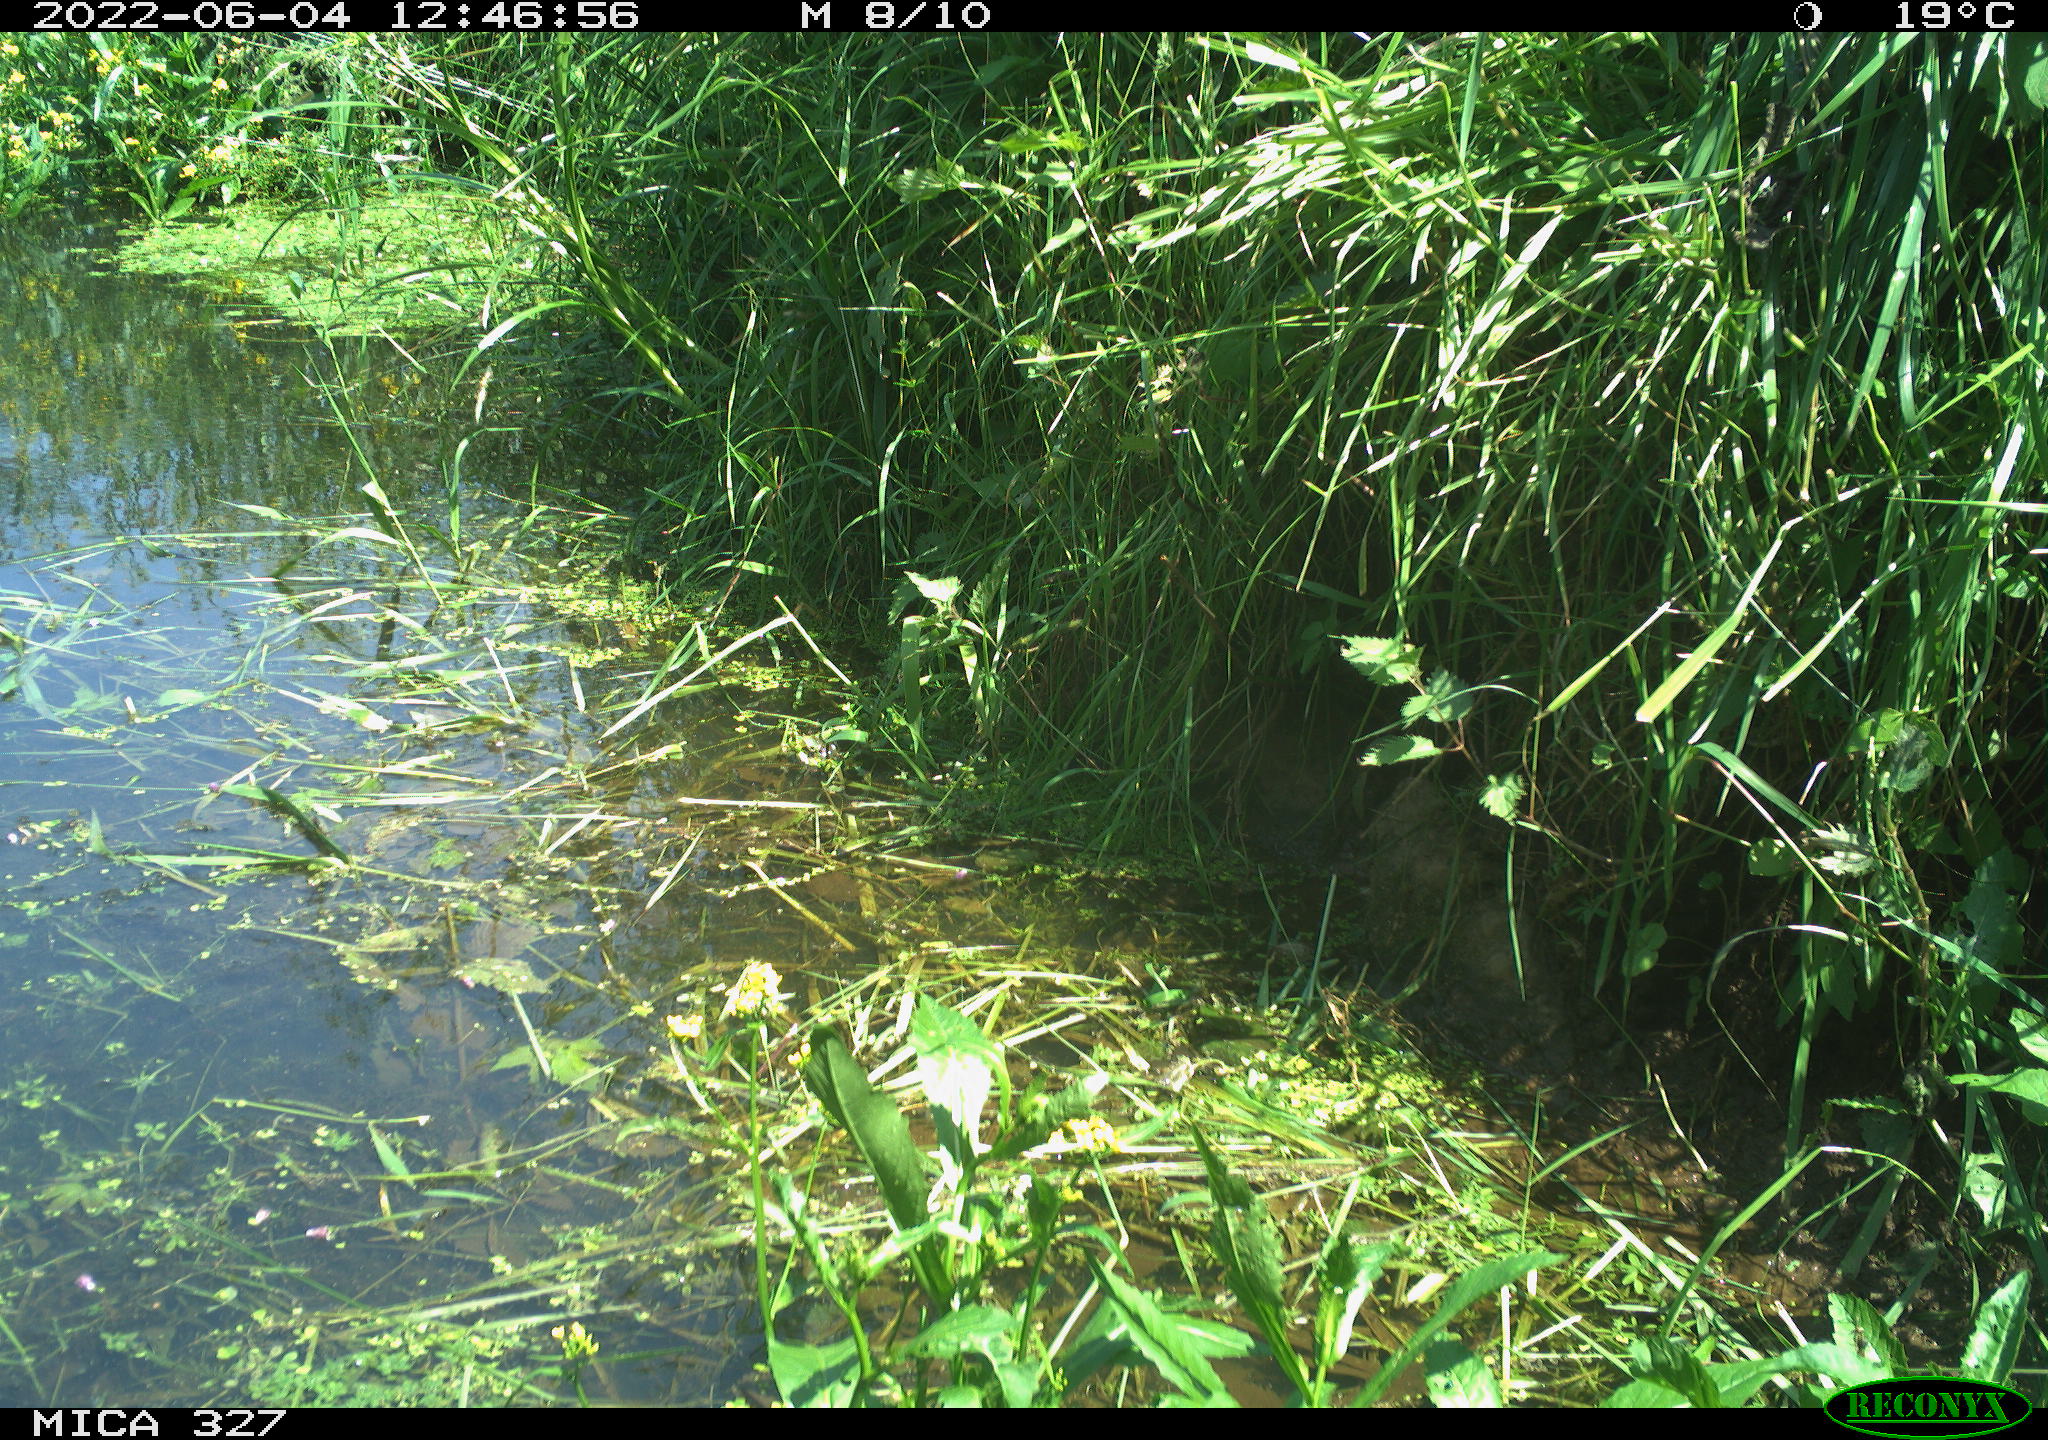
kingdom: Animalia
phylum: Chordata
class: Mammalia
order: Rodentia
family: Muridae
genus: Rattus
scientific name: Rattus norvegicus
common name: Brown rat
